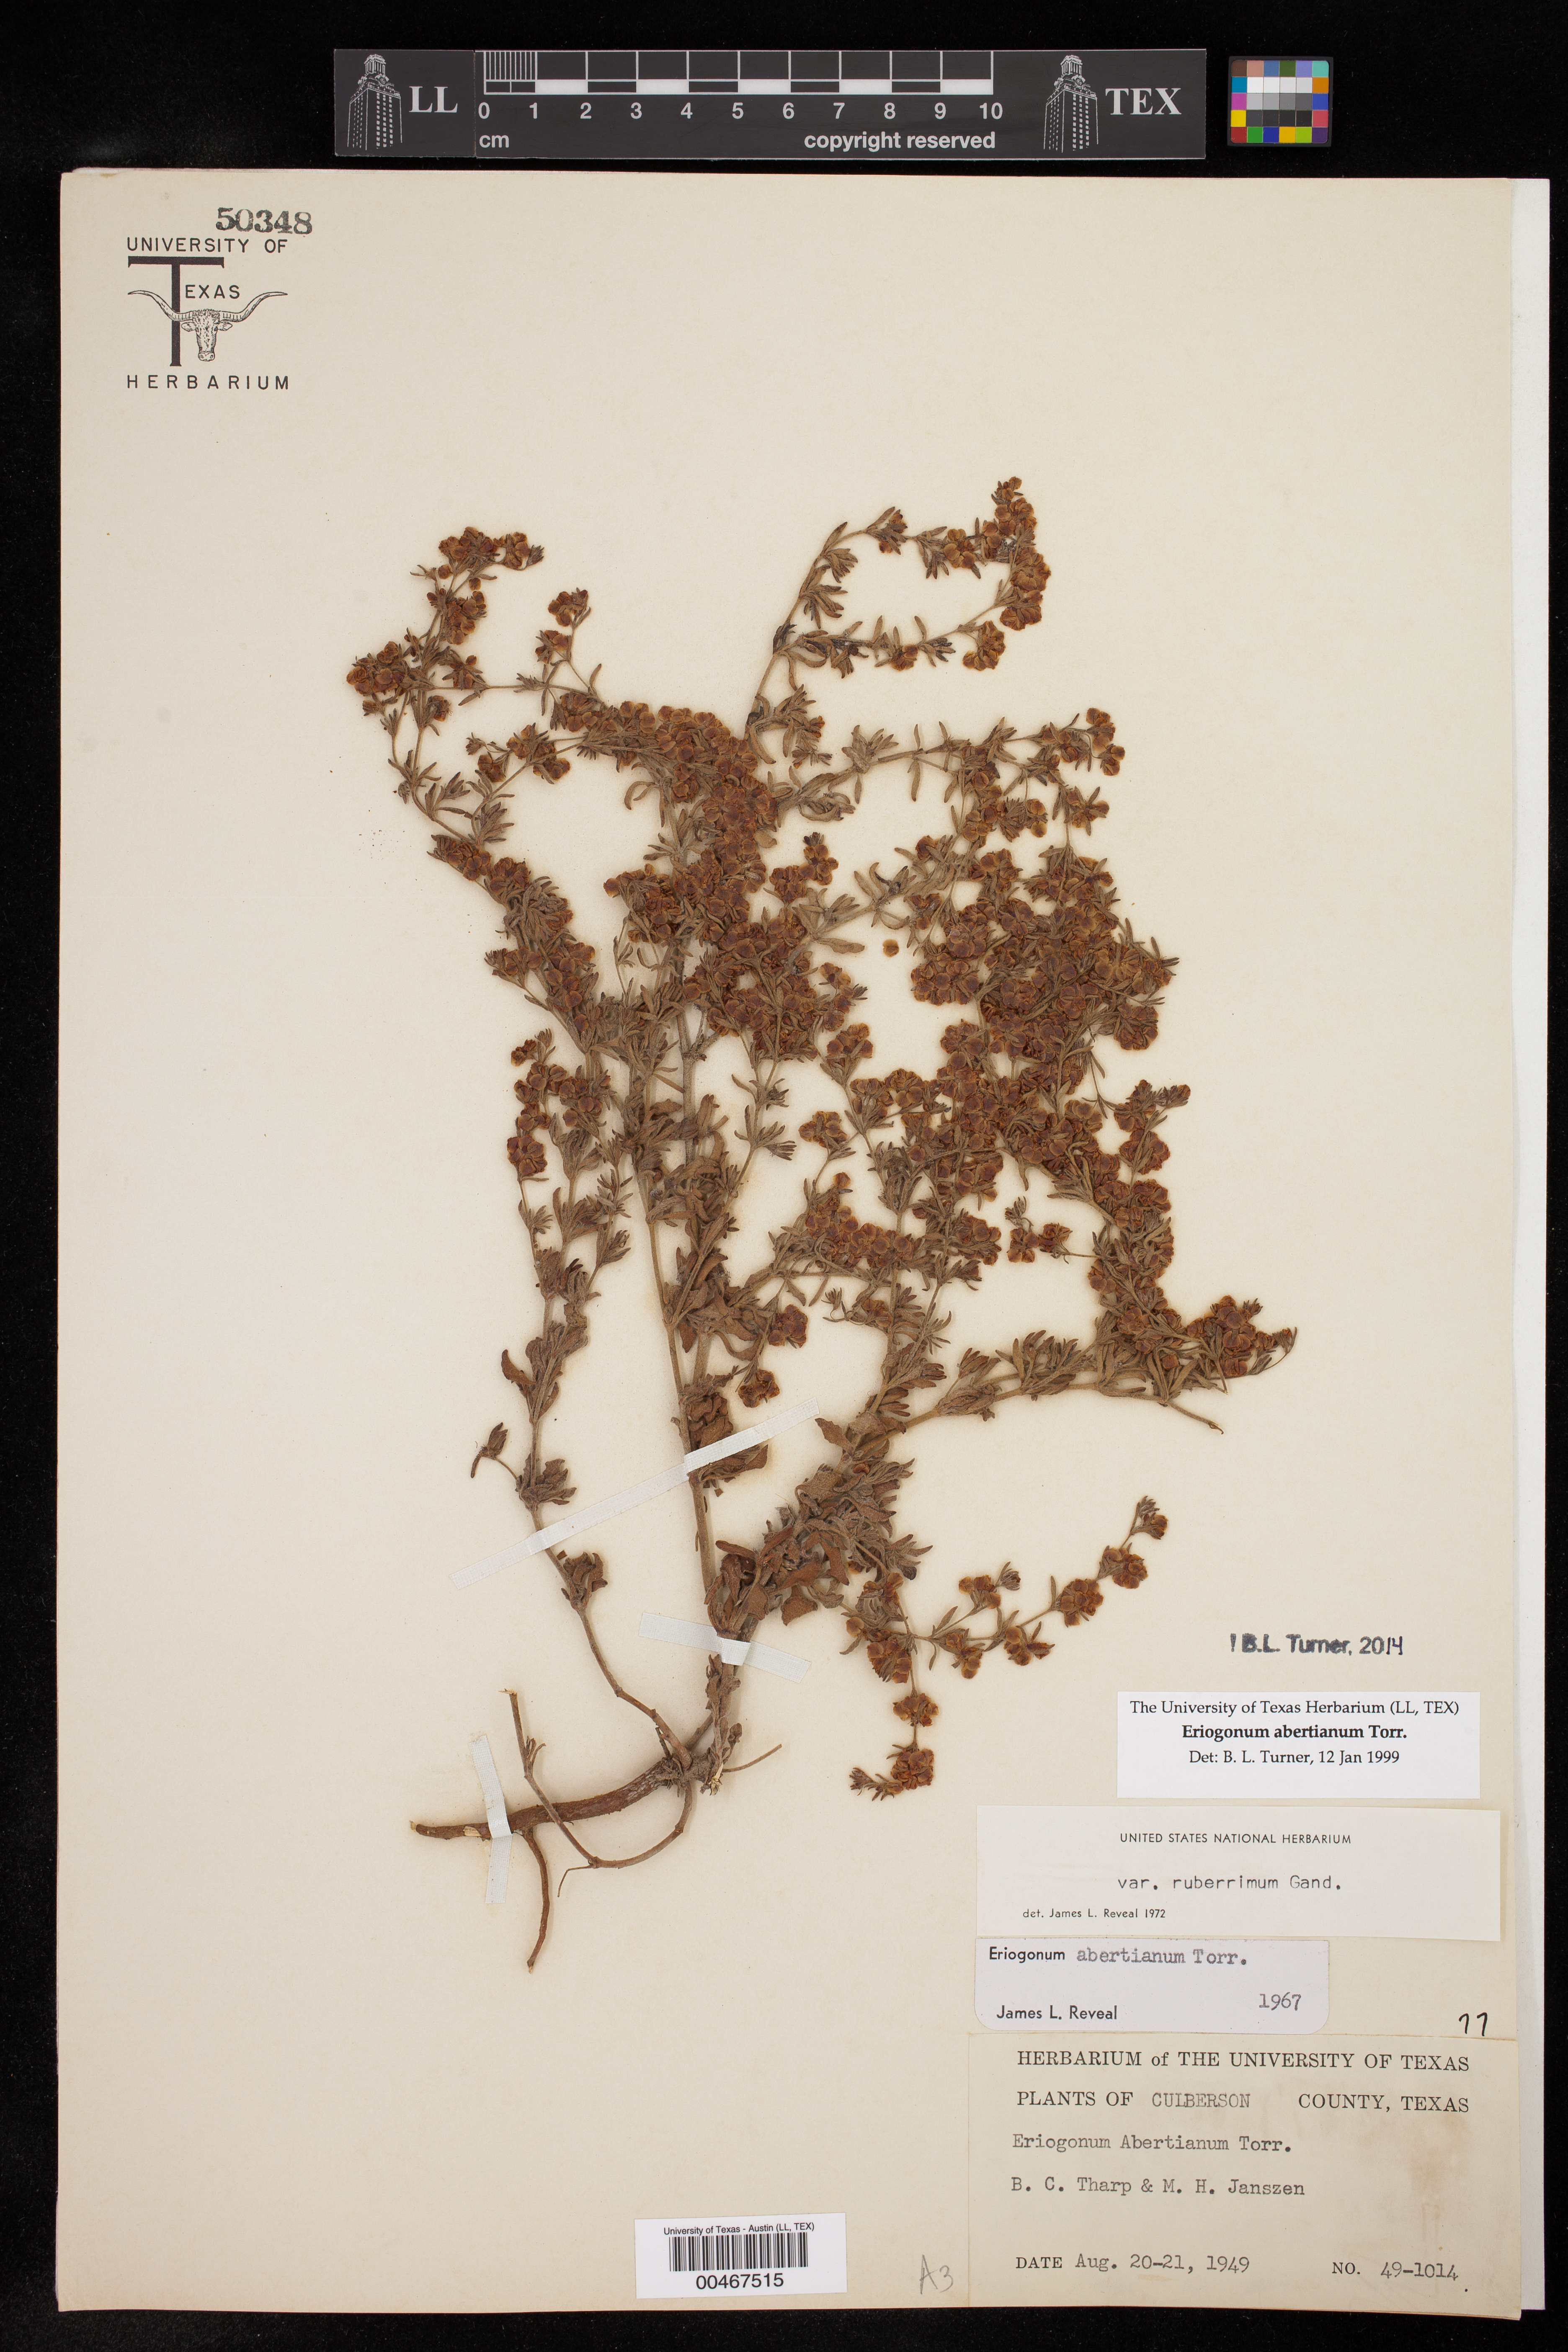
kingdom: Plantae
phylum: Tracheophyta
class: Magnoliopsida
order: Caryophyllales
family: Polygonaceae
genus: Eriogonum
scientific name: Eriogonum abertianum
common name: Abert's wild buckwheat
